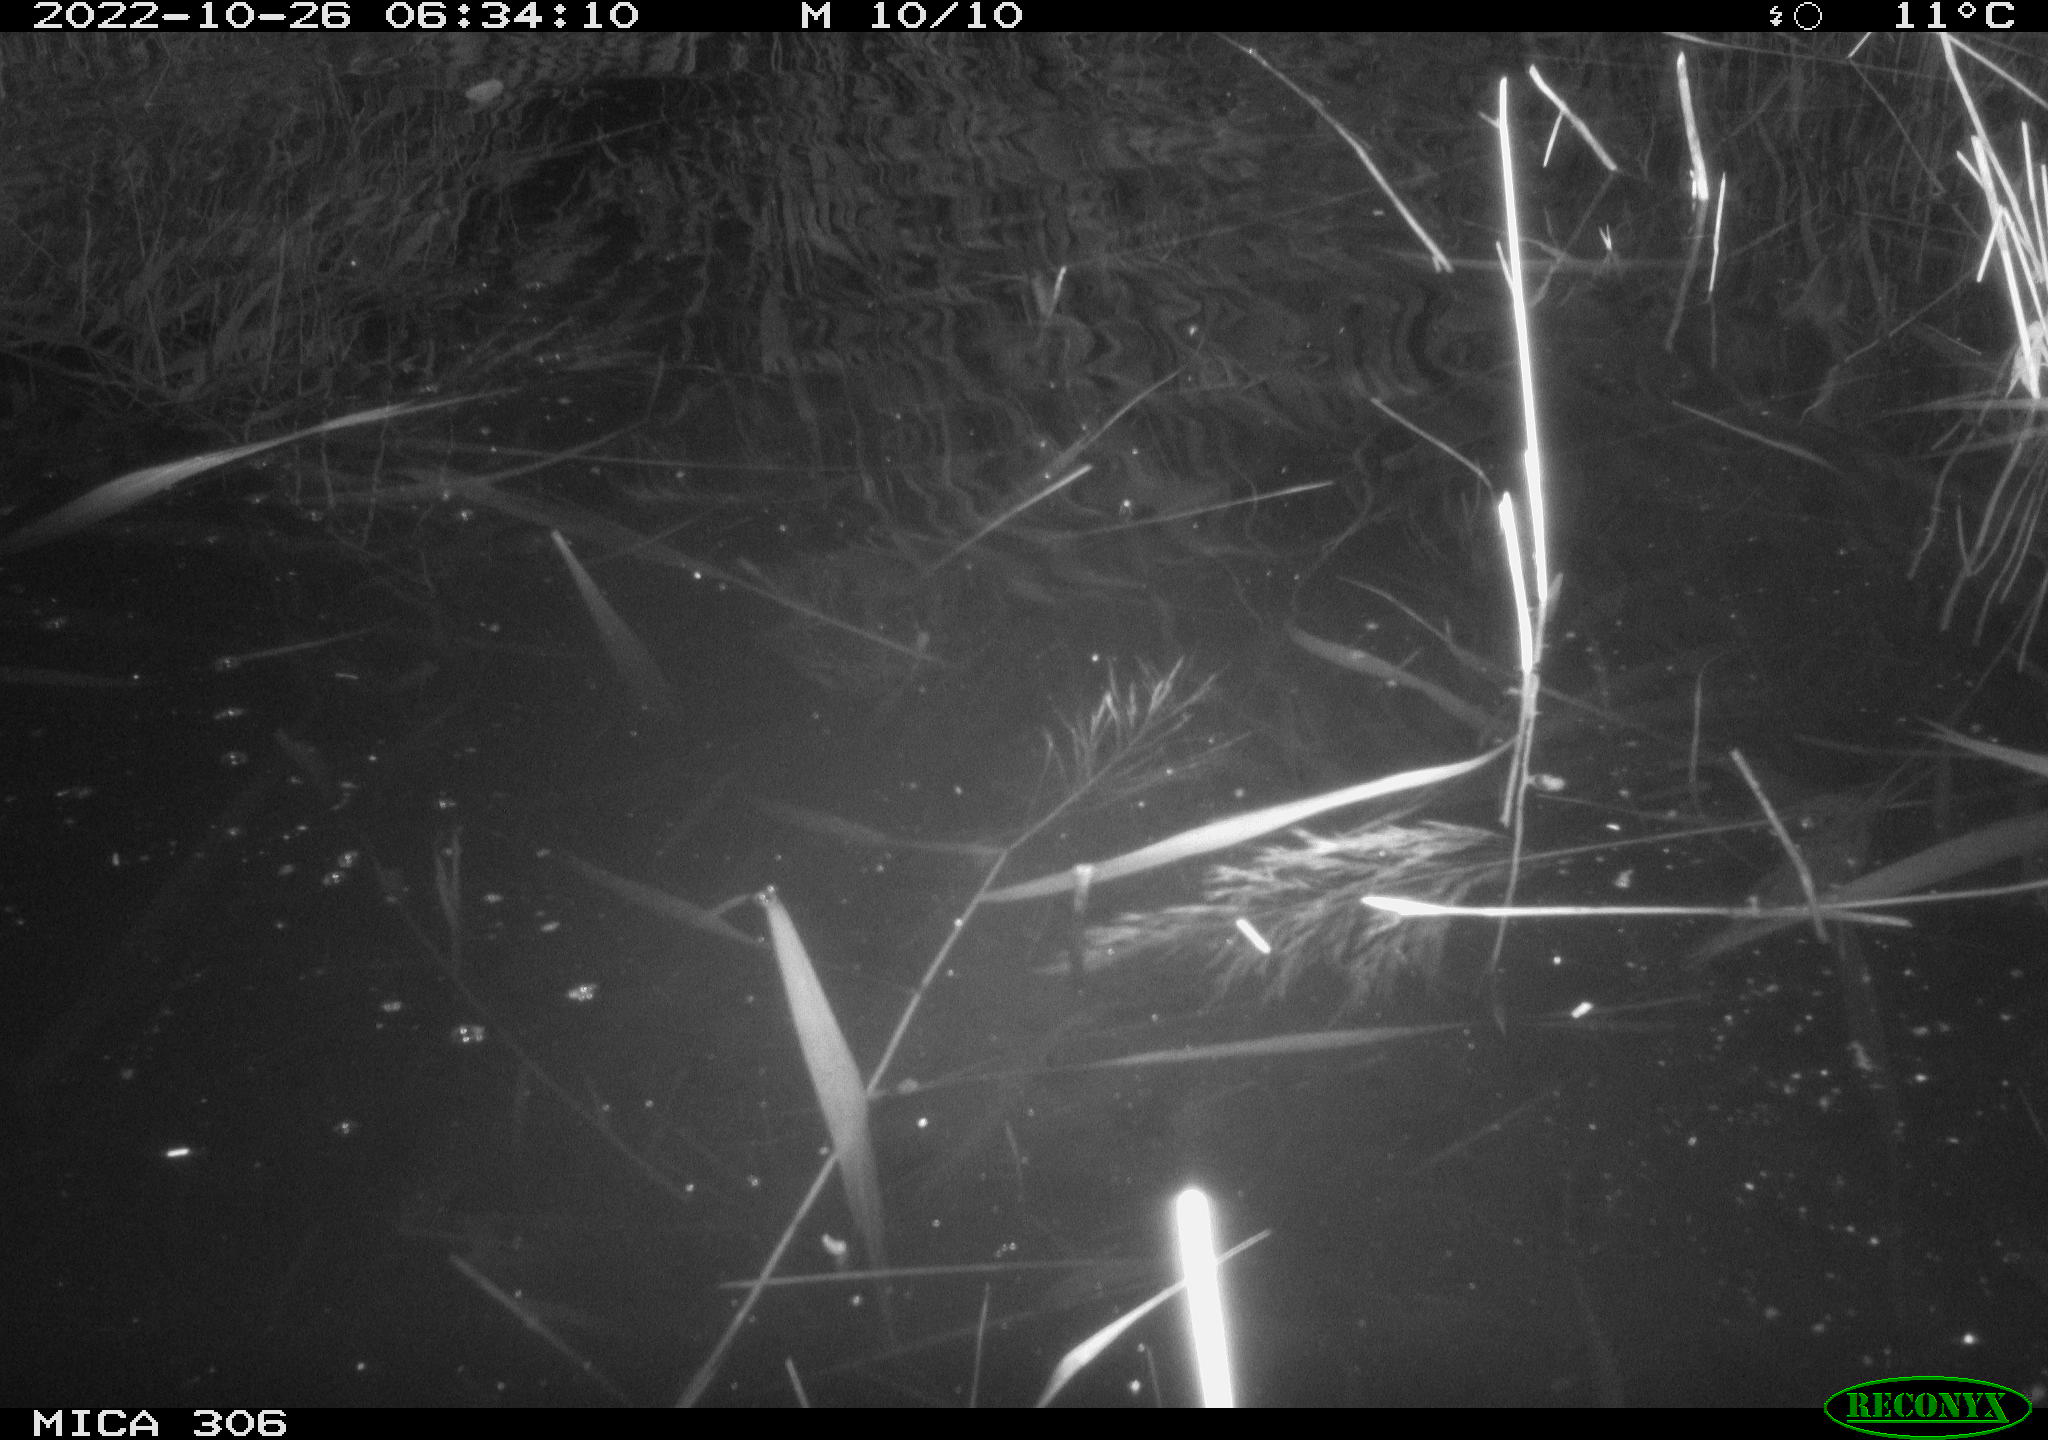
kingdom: Animalia
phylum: Chordata
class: Mammalia
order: Rodentia
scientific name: Rodentia
